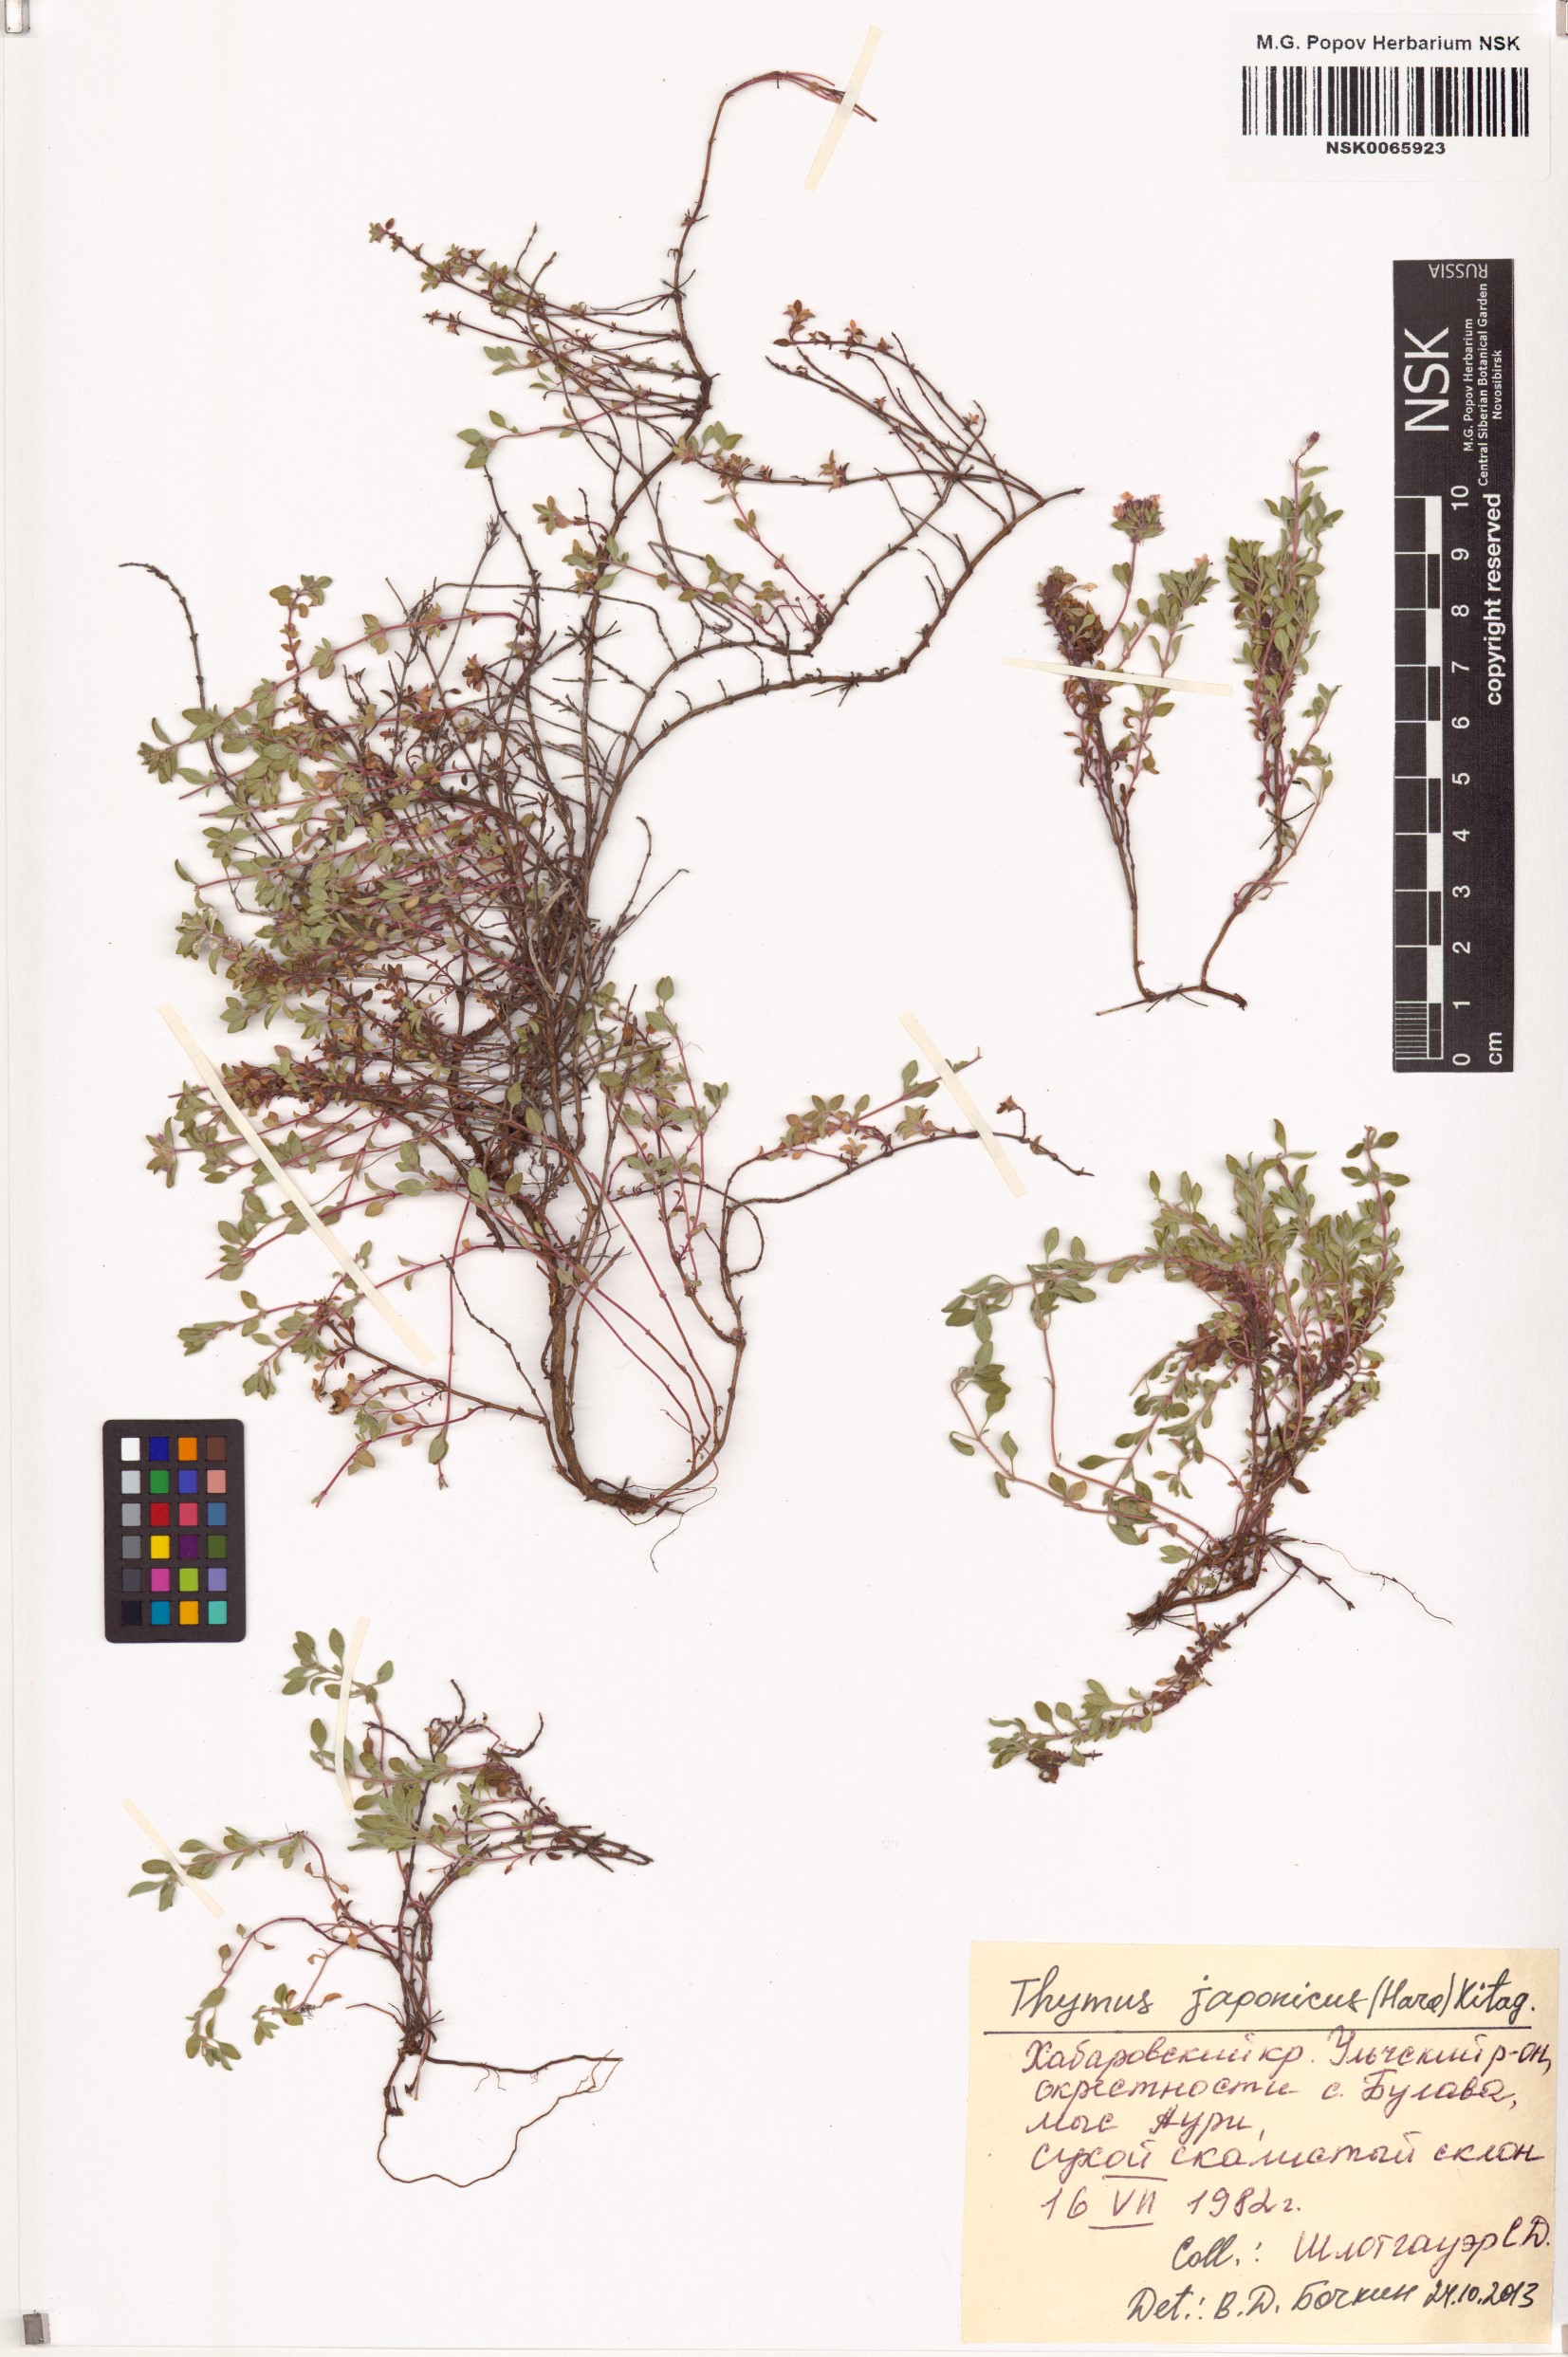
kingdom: Plantae
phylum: Tracheophyta
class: Magnoliopsida
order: Lamiales
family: Lamiaceae
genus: Thymus
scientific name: Thymus japonicus
